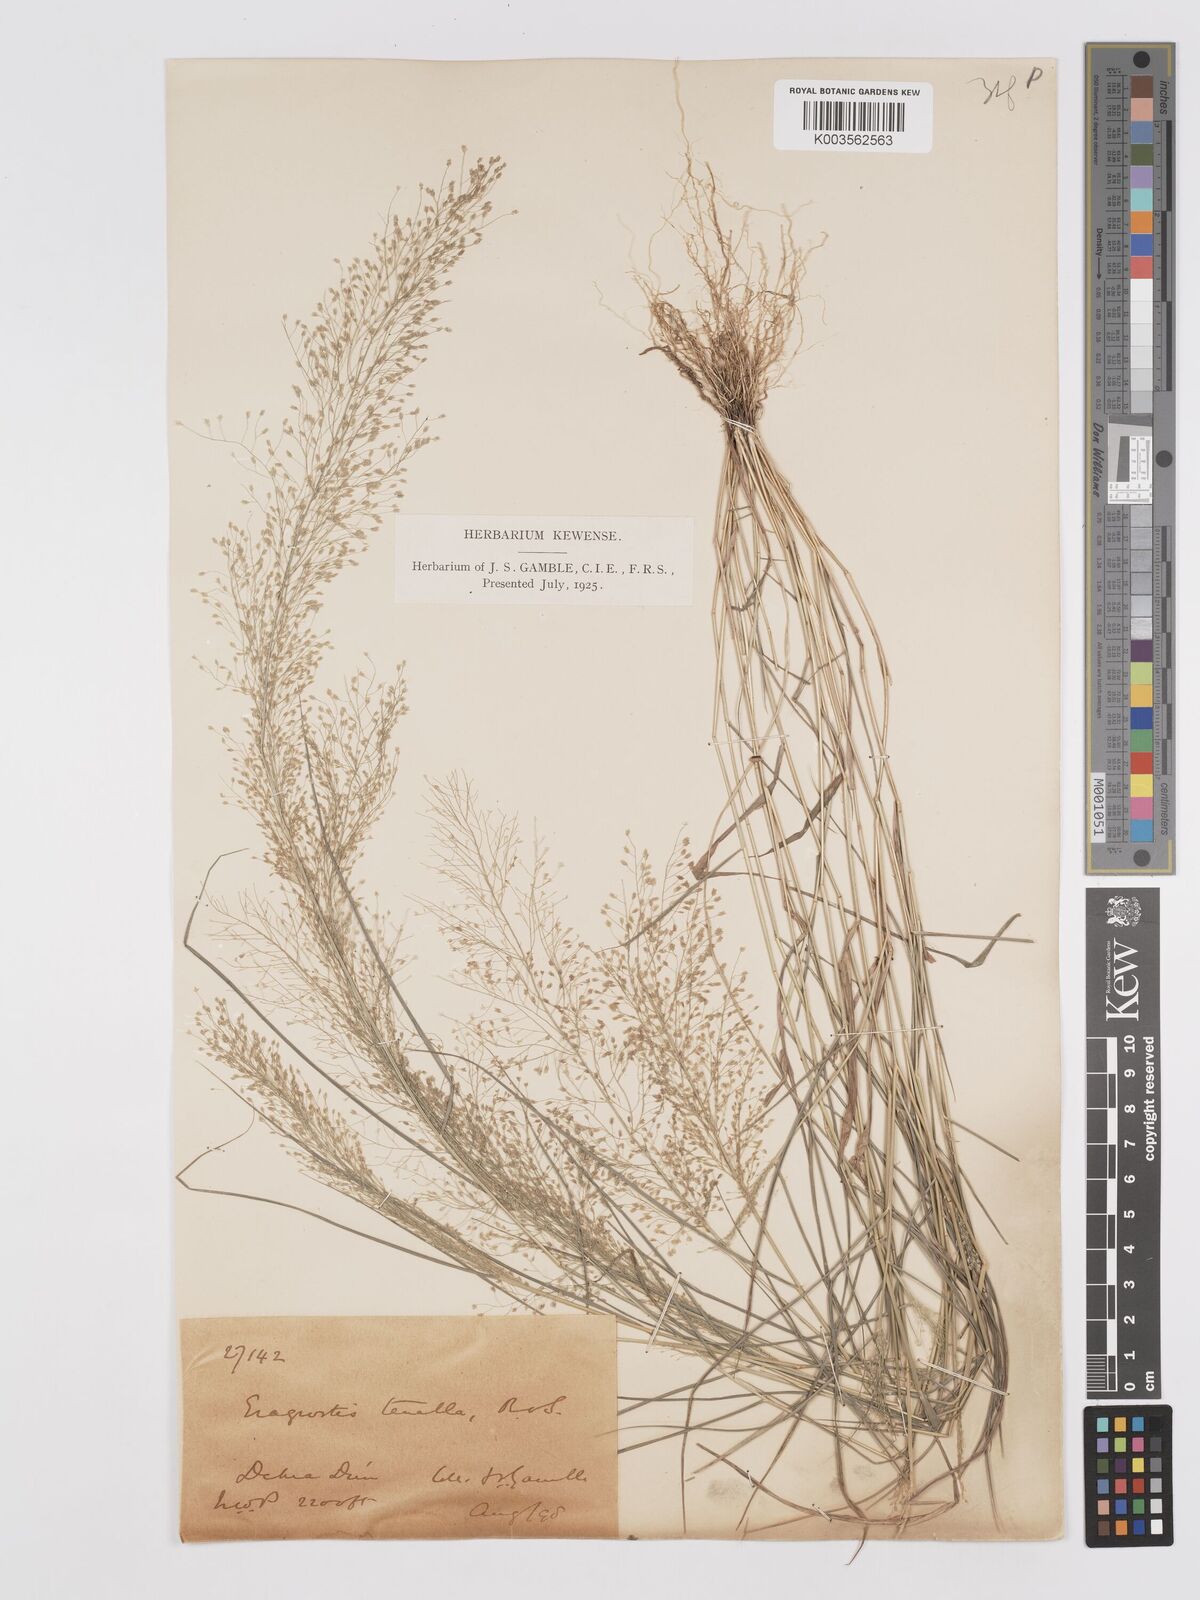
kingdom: Plantae
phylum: Tracheophyta
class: Liliopsida
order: Poales
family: Poaceae
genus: Eragrostis
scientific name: Eragrostis tenella
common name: Japanese lovegrass
